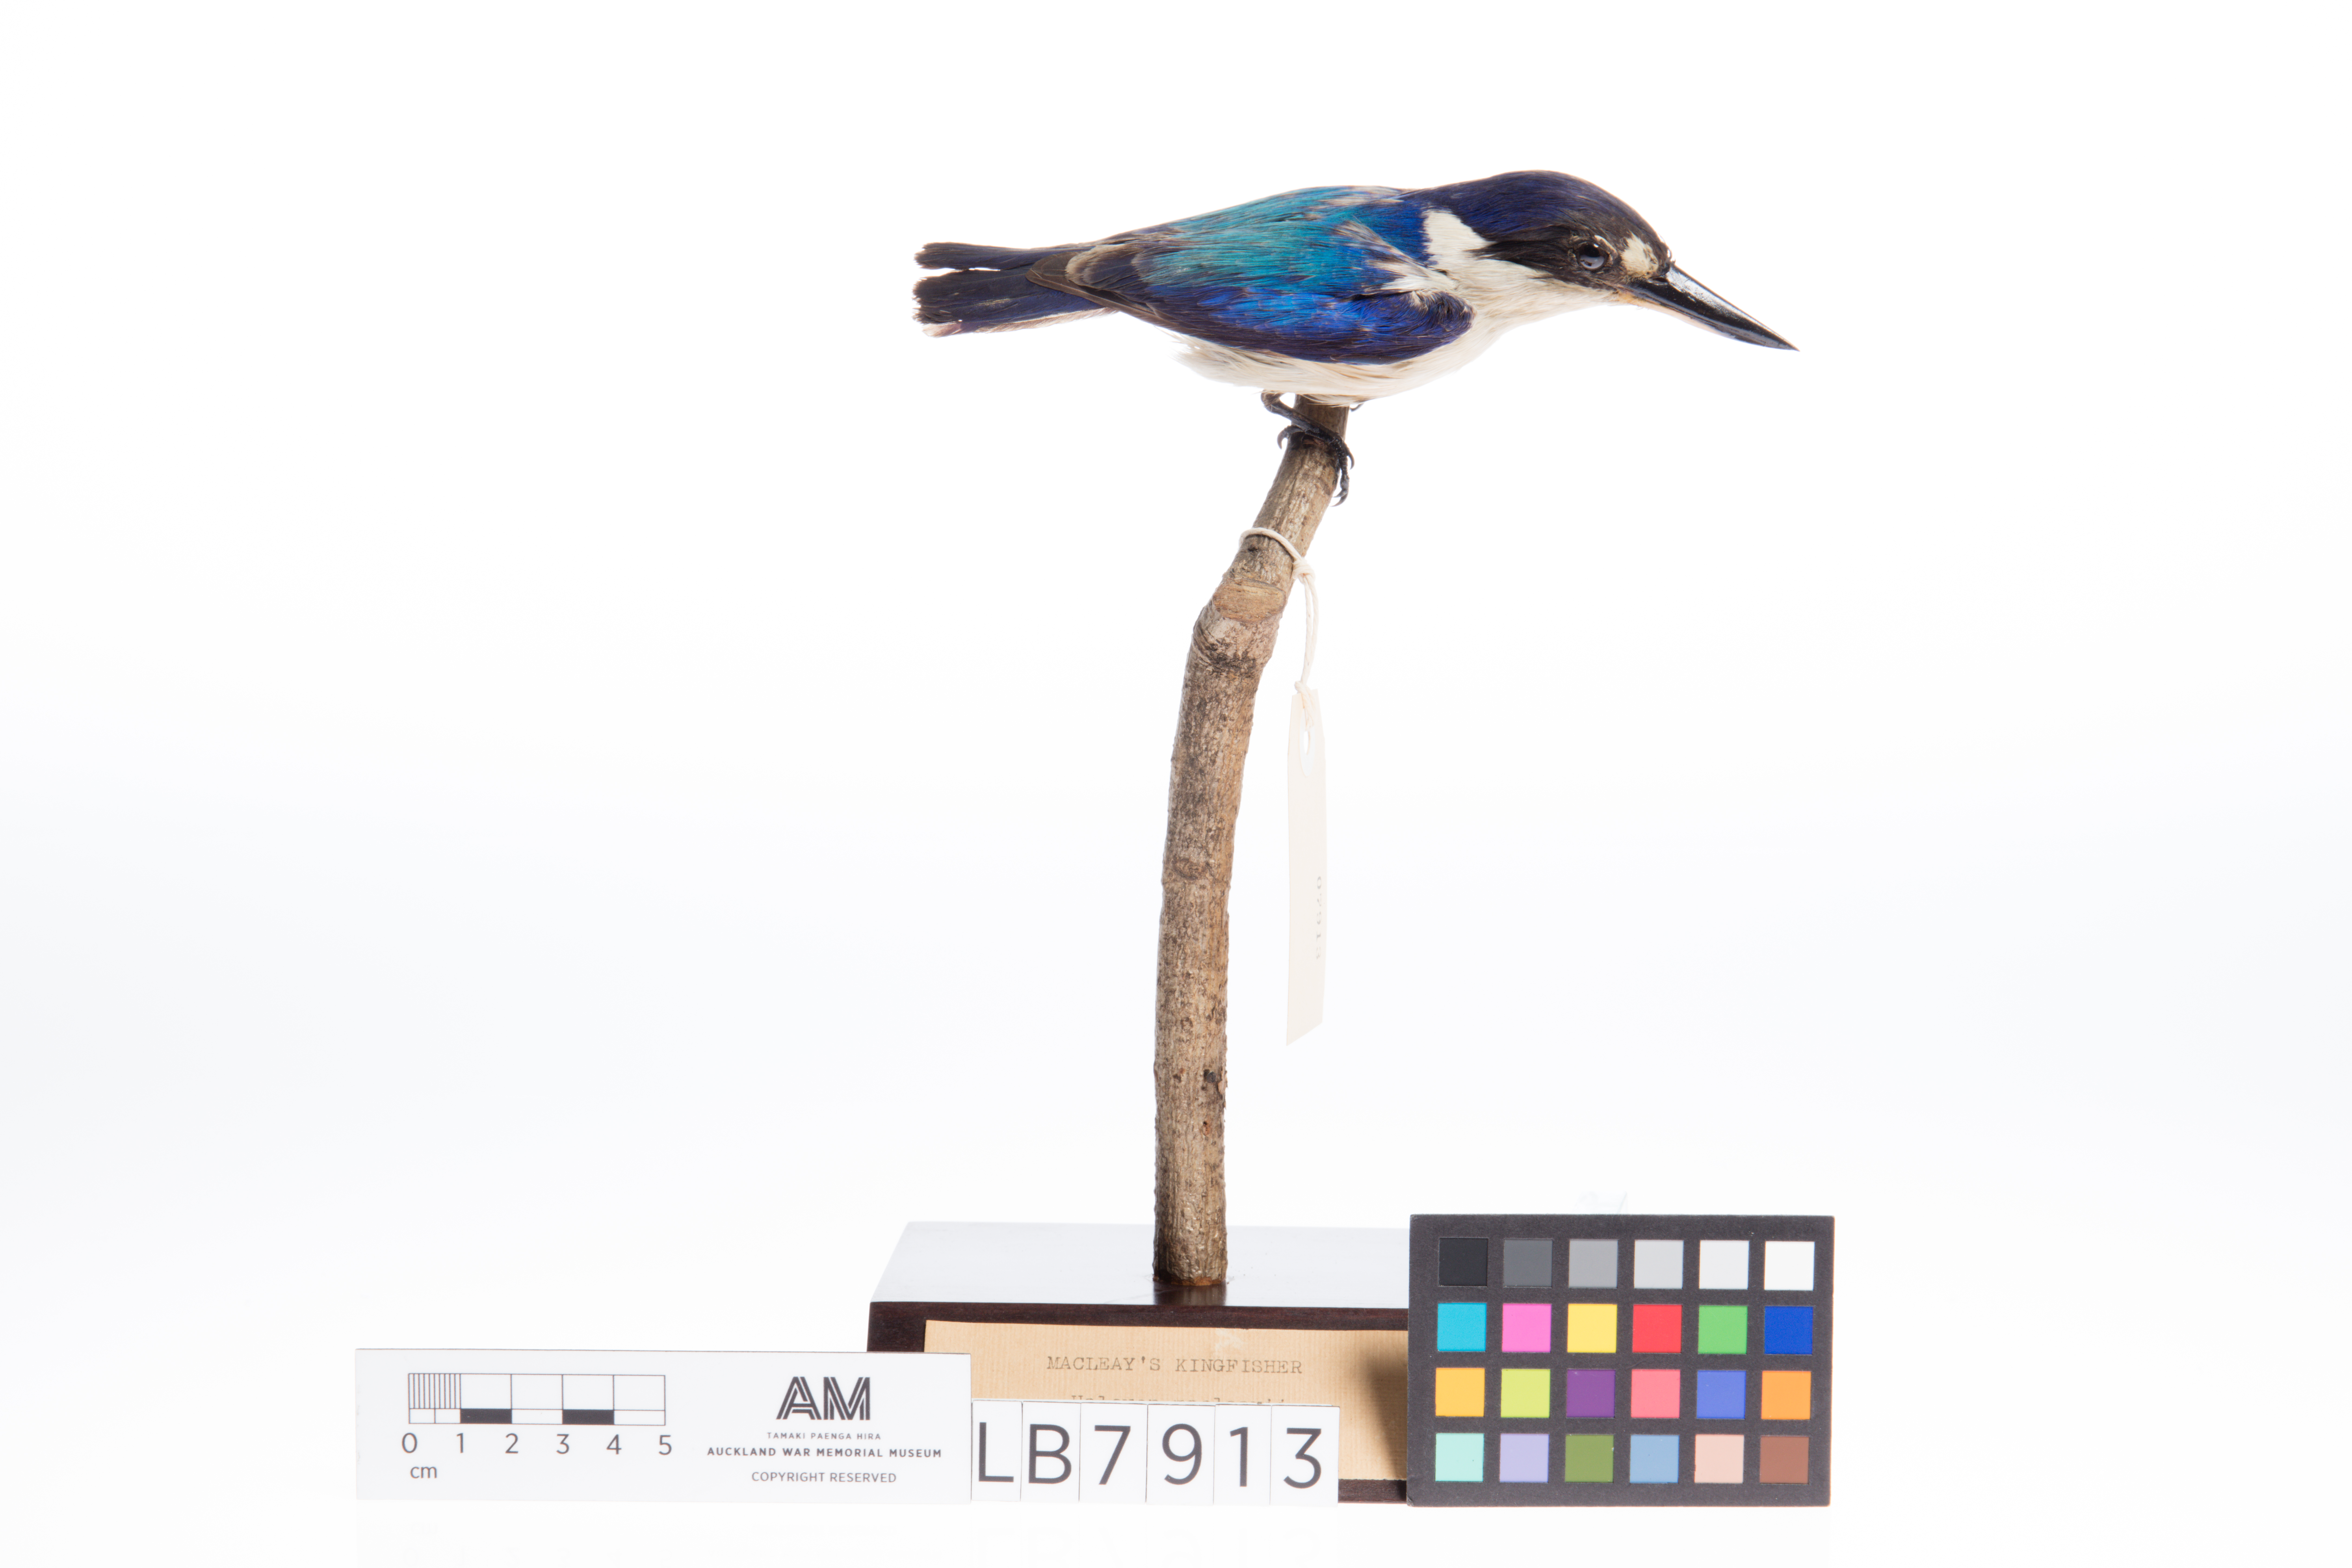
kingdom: Animalia
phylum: Chordata
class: Aves
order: Coraciiformes
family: Alcedinidae
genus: Todiramphus
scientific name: Todiramphus macleayii
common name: Forest kingfisher
